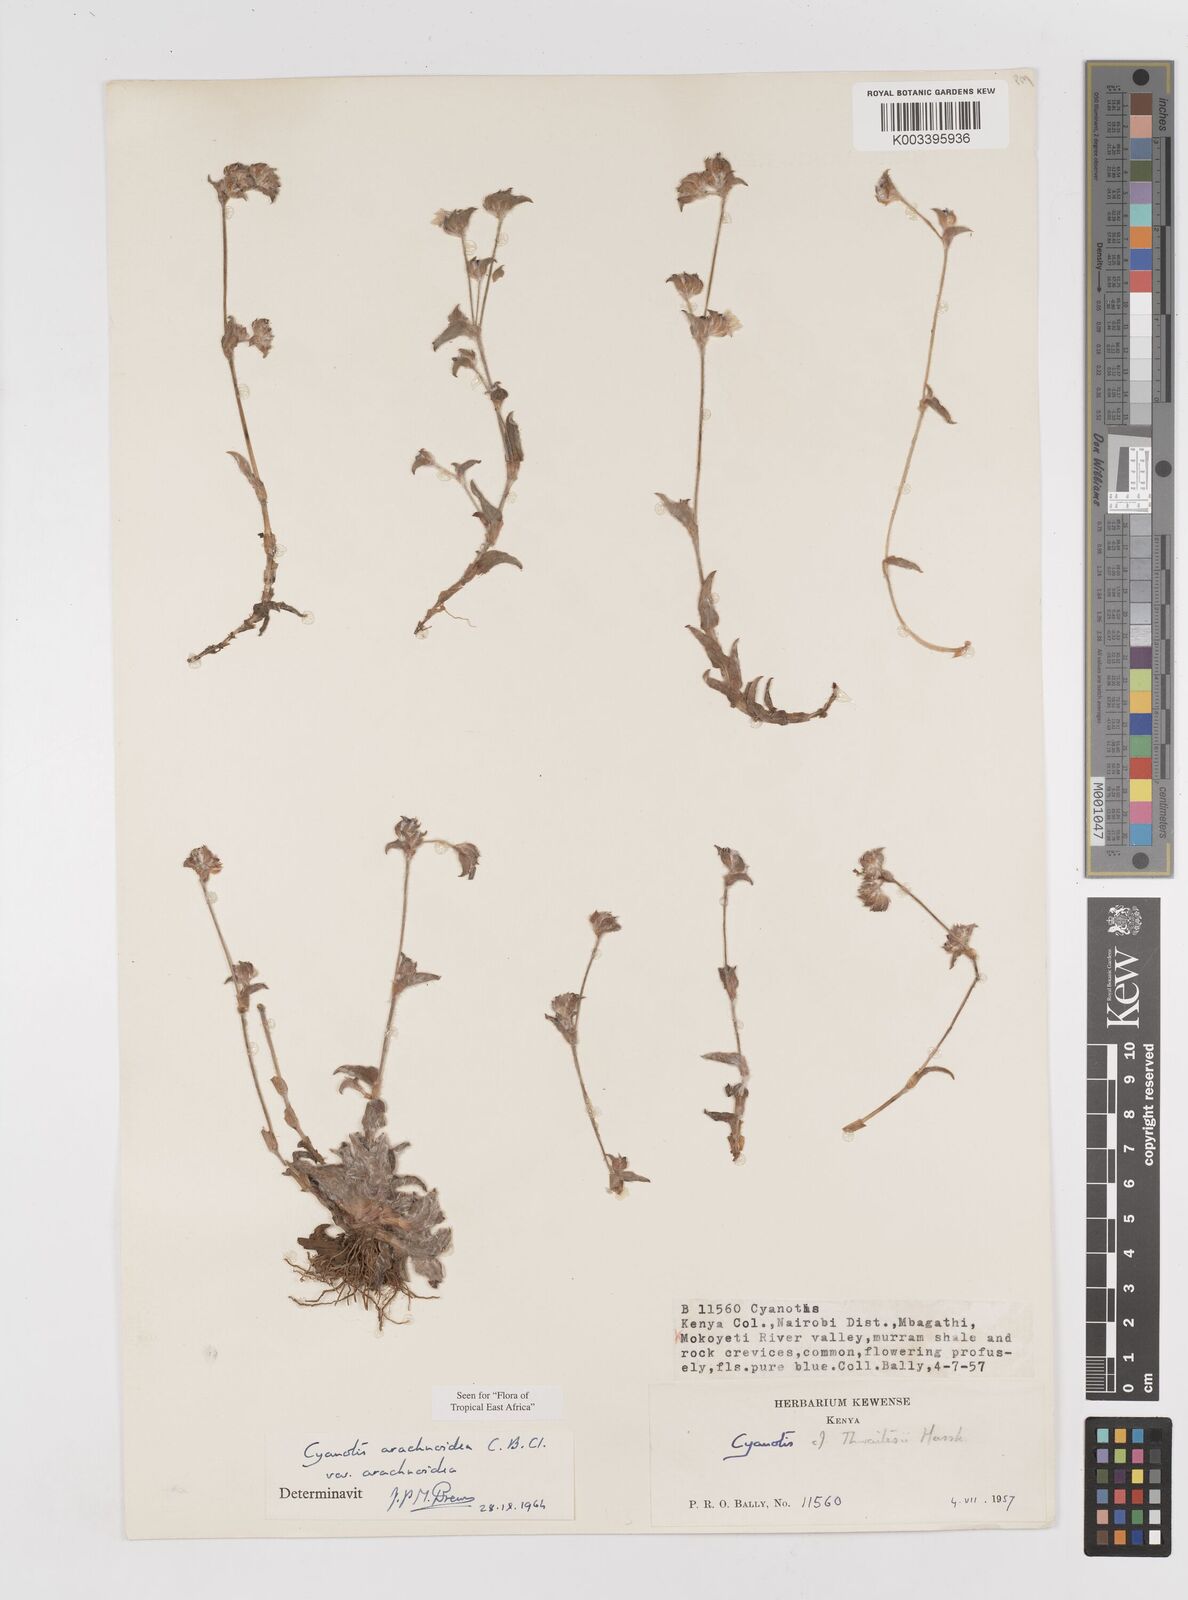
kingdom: Plantae
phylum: Tracheophyta
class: Liliopsida
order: Commelinales
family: Commelinaceae
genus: Cyanotis
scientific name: Cyanotis arachnoidea
